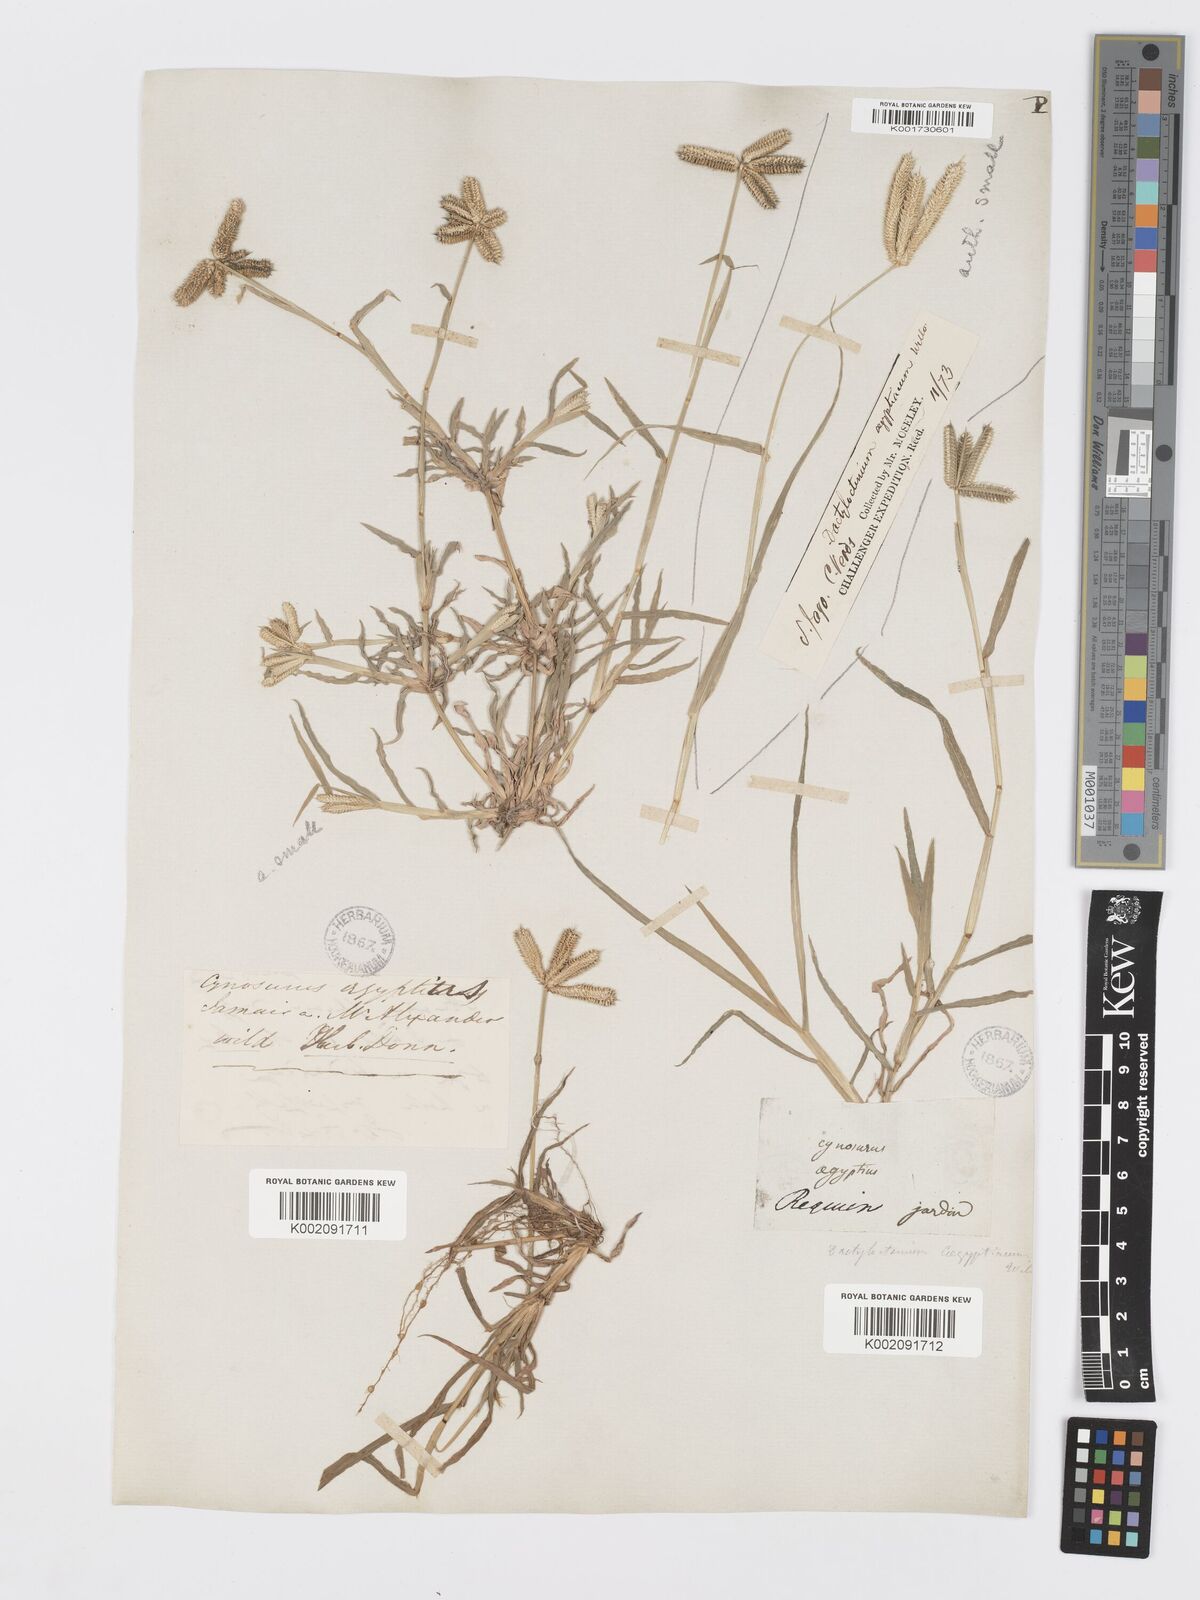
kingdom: Plantae
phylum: Tracheophyta
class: Liliopsida
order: Poales
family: Poaceae
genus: Dactyloctenium
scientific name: Dactyloctenium aegyptium
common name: Egyptian grass
